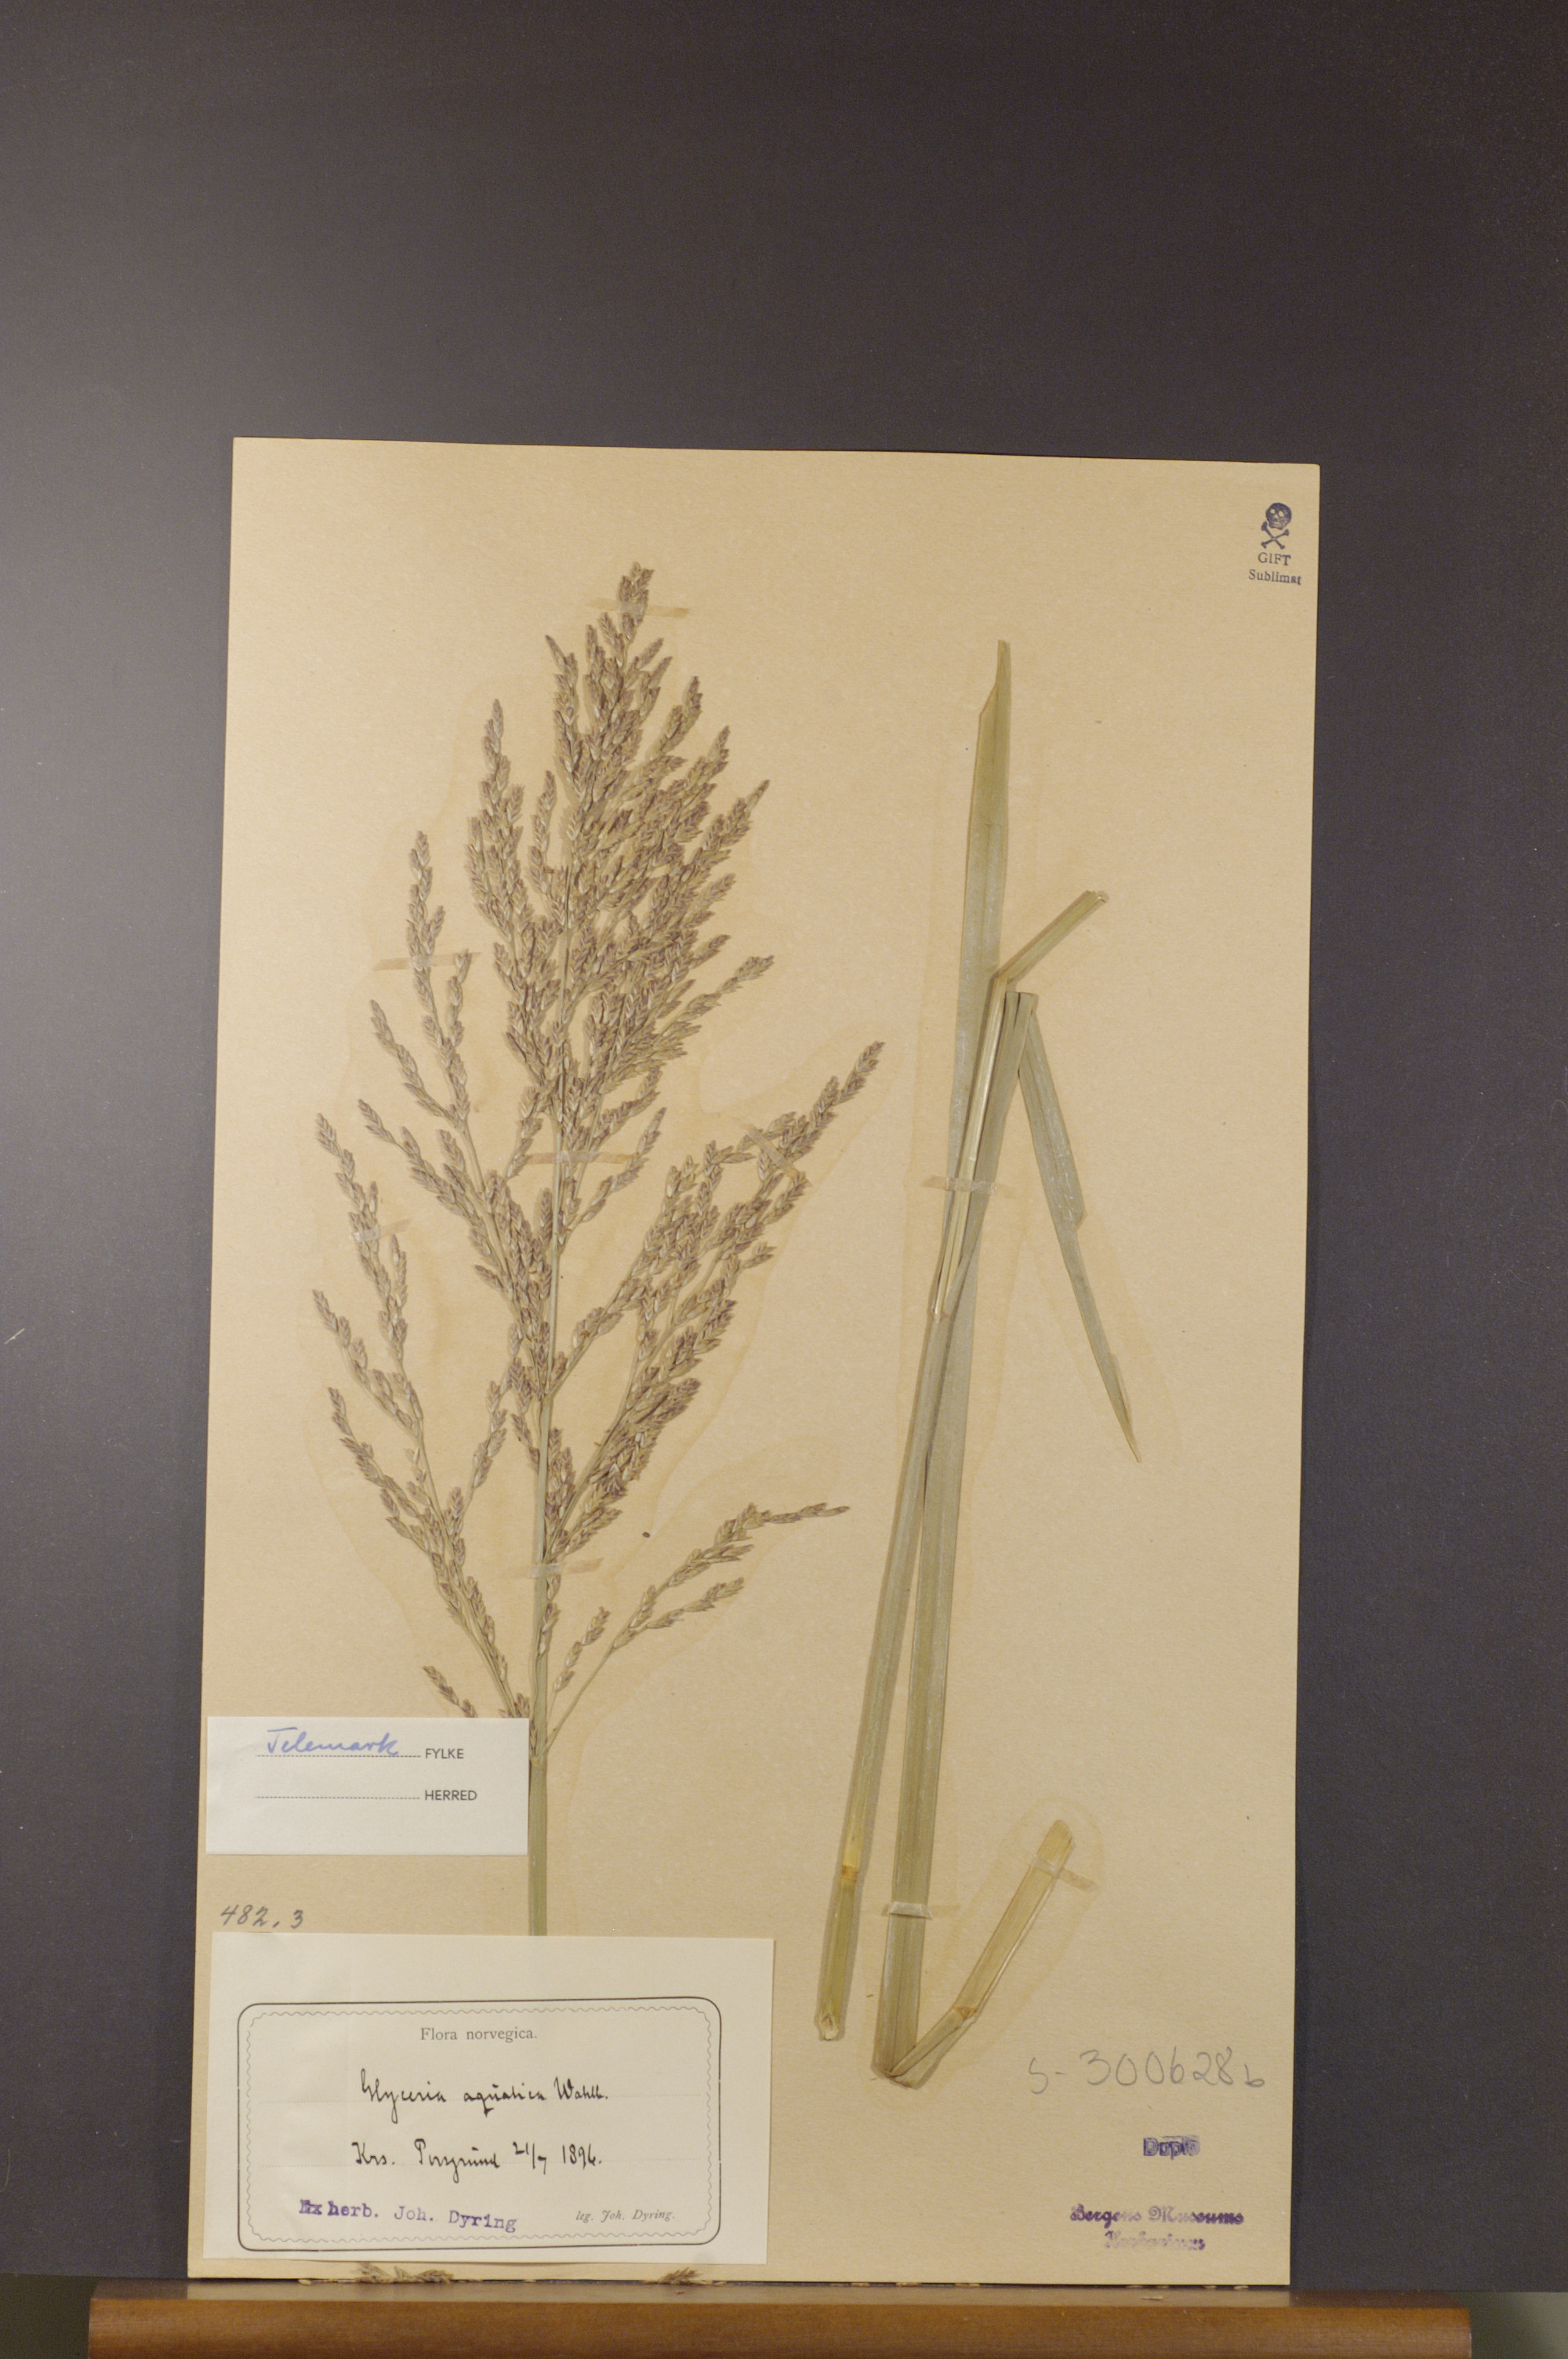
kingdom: Plantae
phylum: Tracheophyta
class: Liliopsida
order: Poales
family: Poaceae
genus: Glyceria
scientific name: Glyceria maxima
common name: Reed mannagrass
